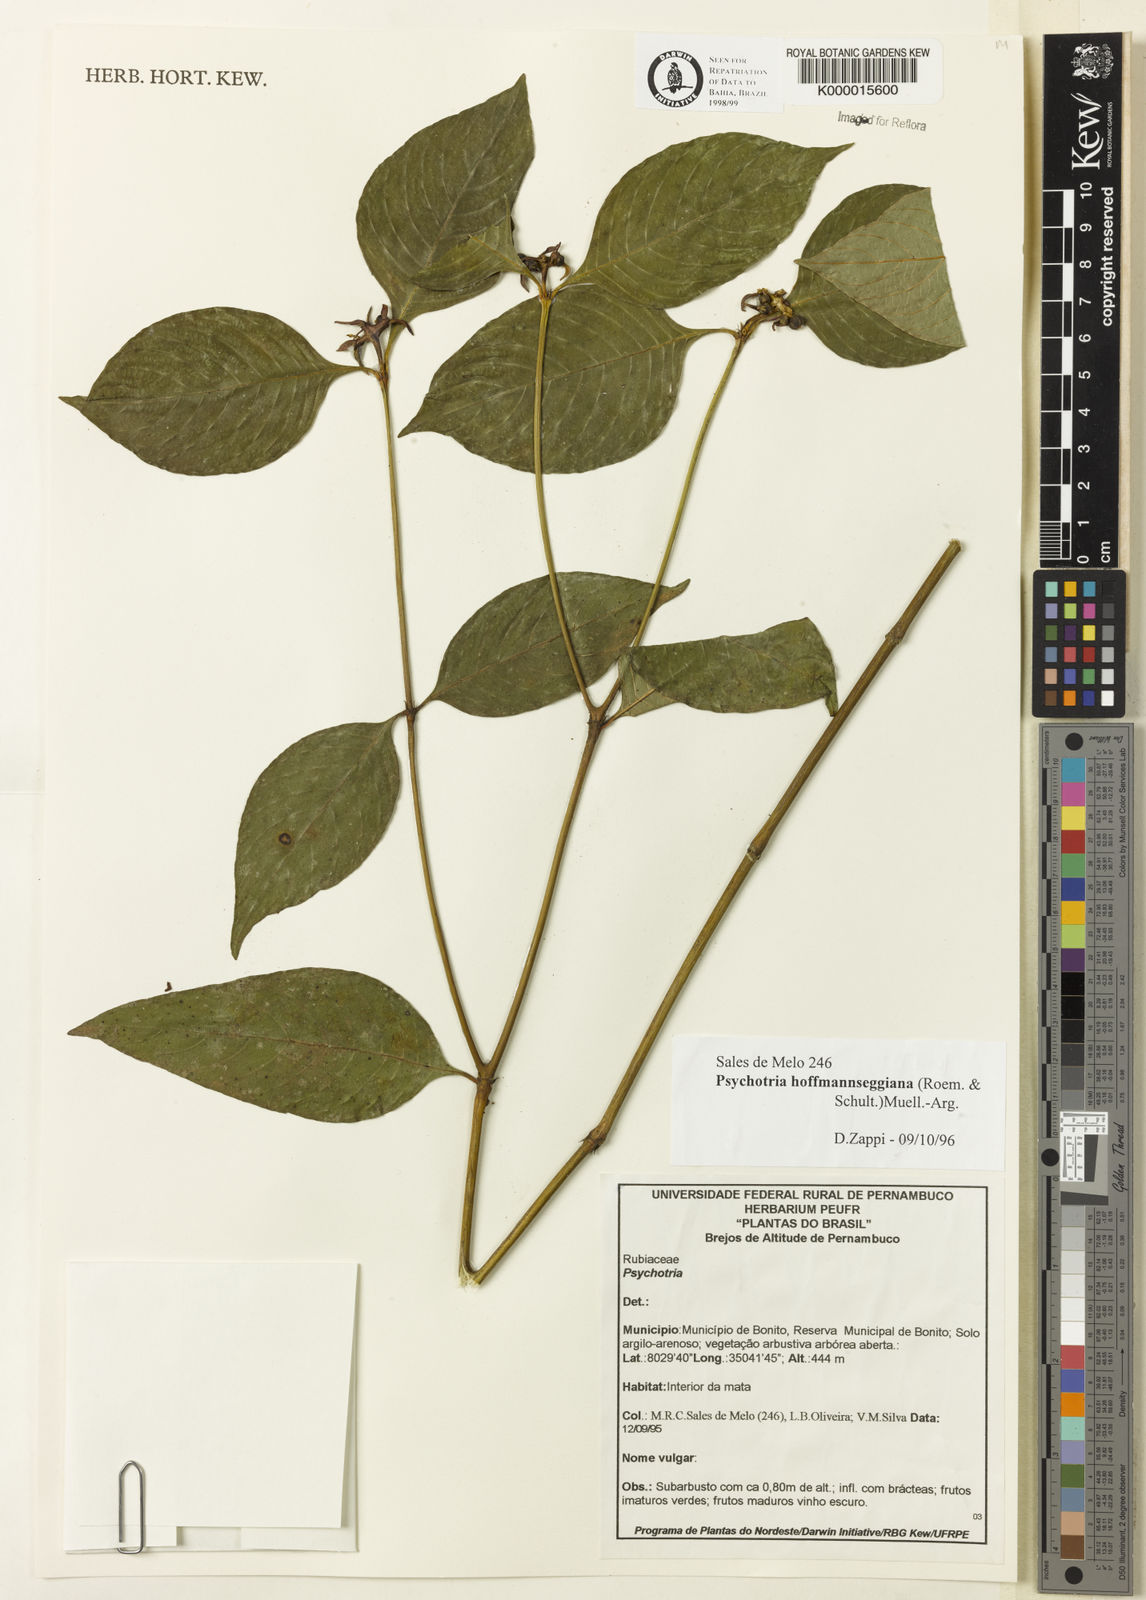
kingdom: Plantae
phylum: Tracheophyta
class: Magnoliopsida
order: Gentianales
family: Rubiaceae
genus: Psychotria
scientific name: Psychotria
